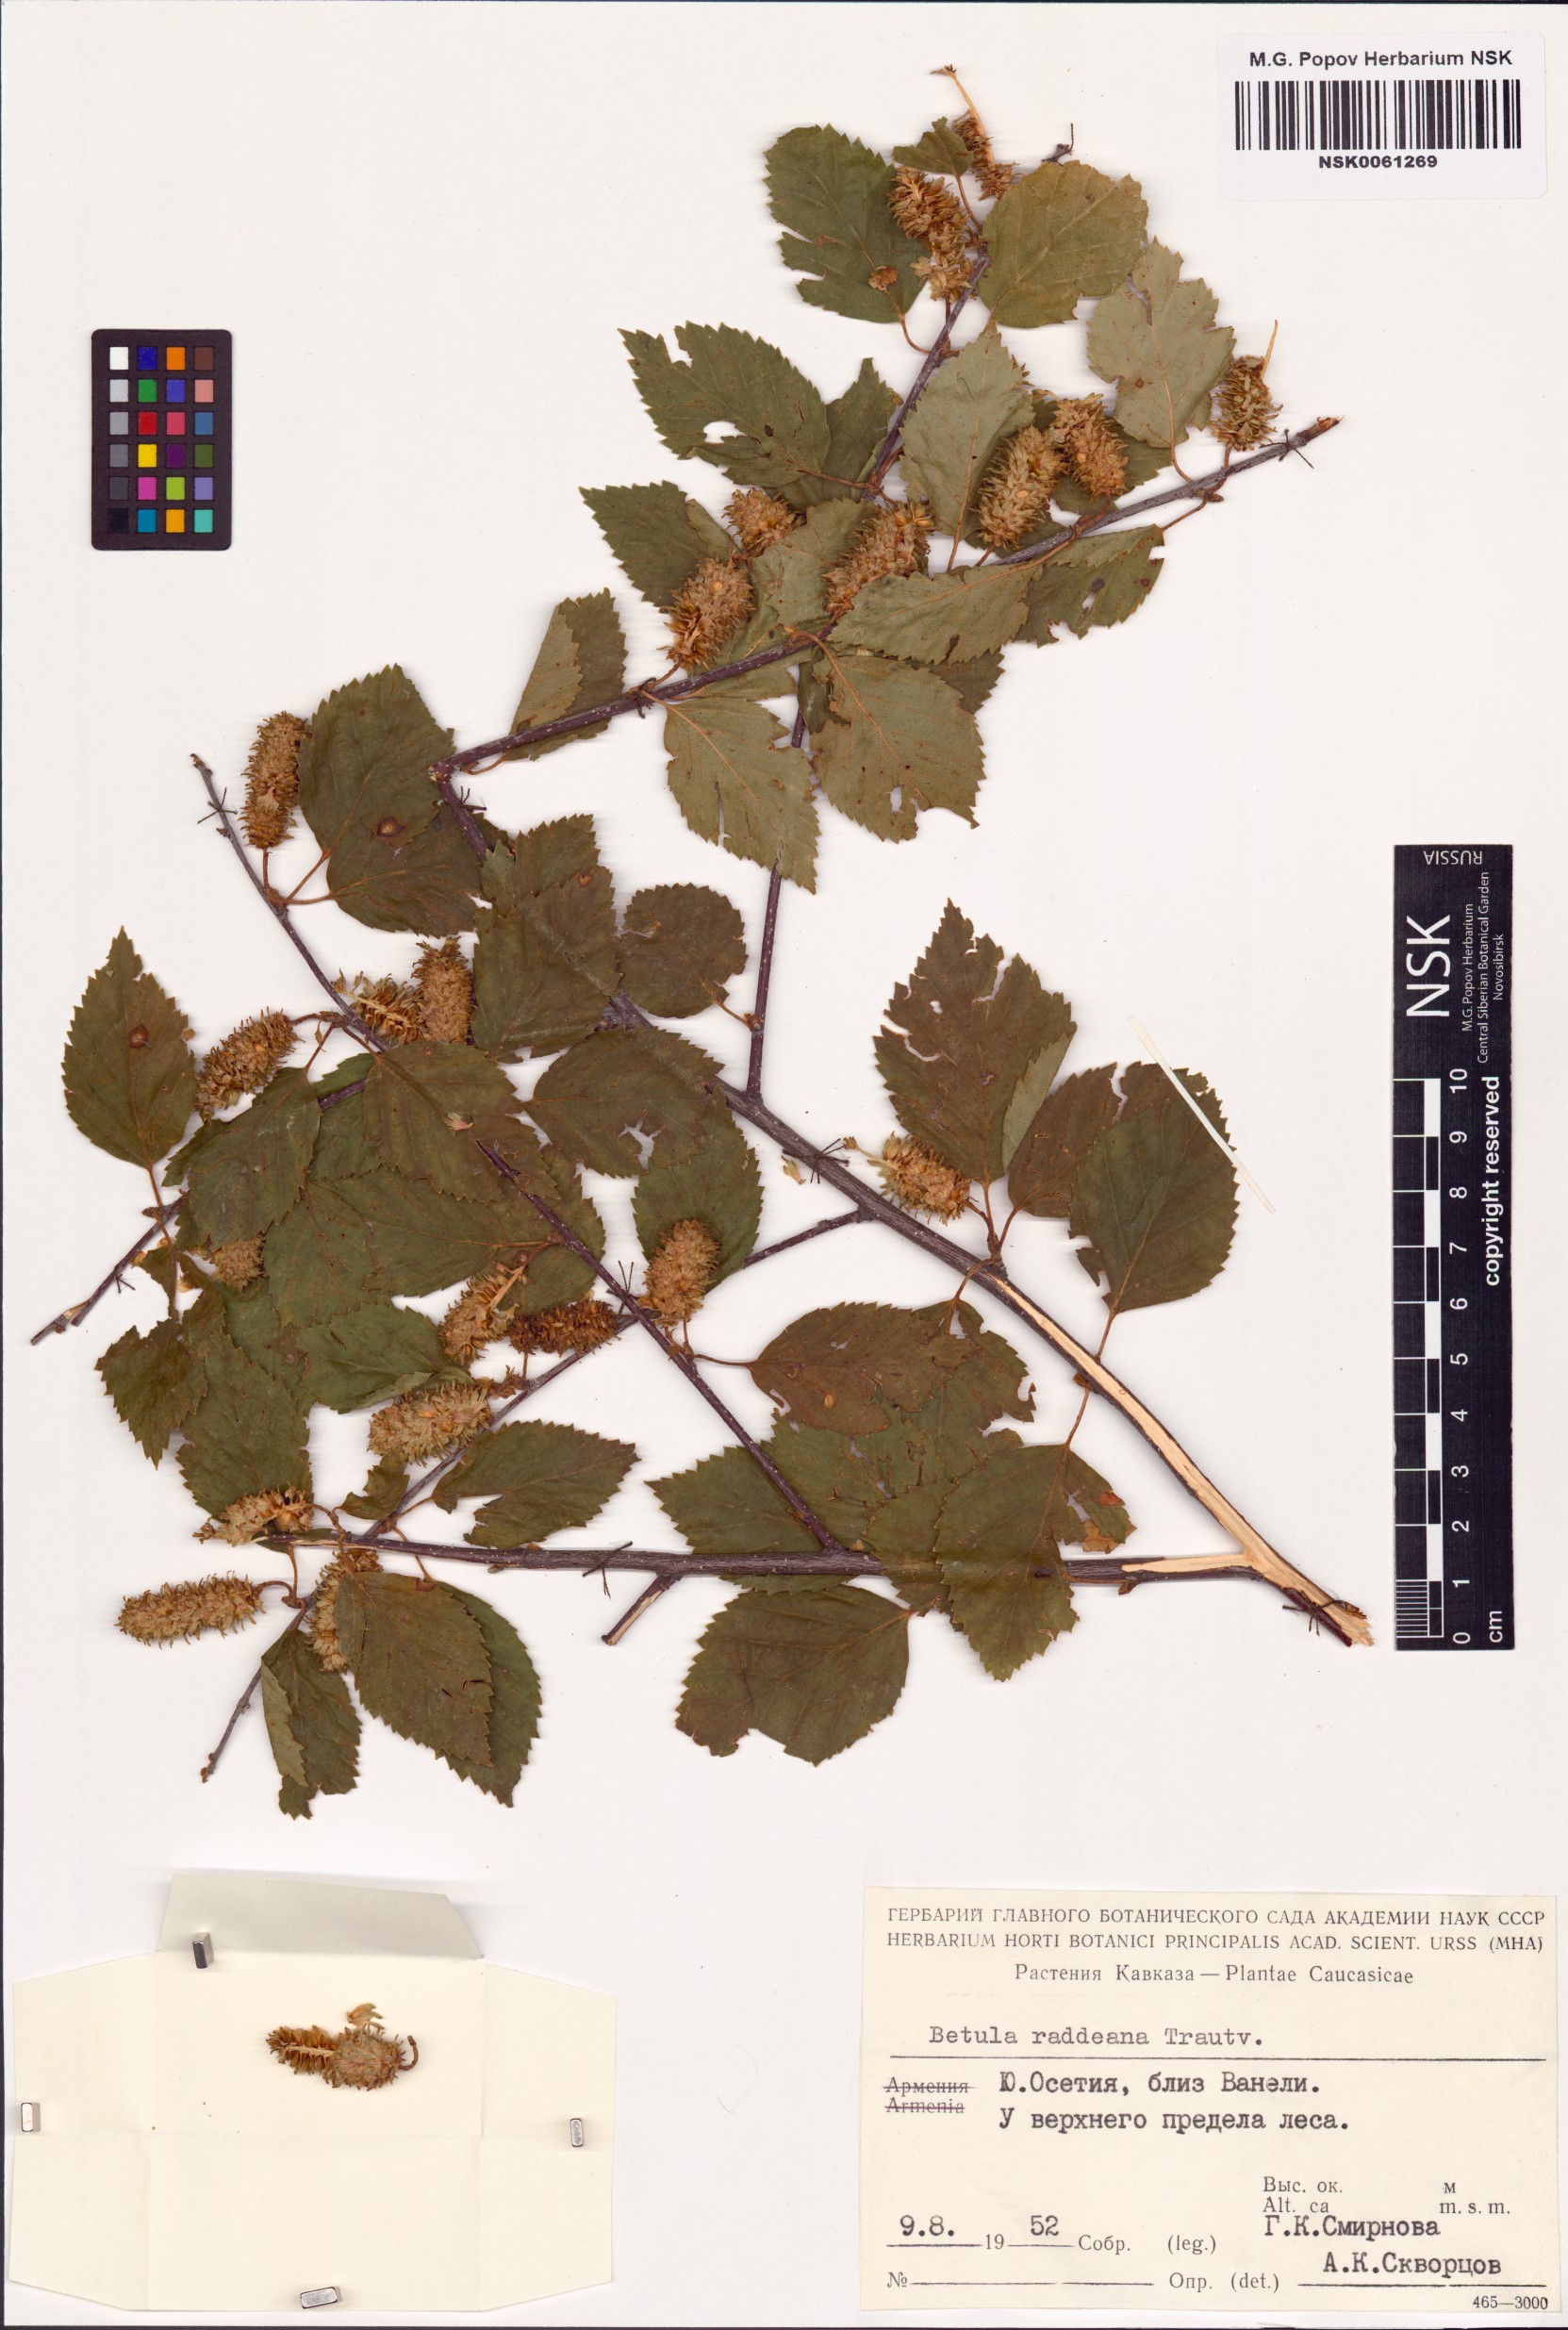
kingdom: Plantae
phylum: Tracheophyta
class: Magnoliopsida
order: Fagales
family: Betulaceae
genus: Betula
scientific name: Betula raddeana
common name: Radde's birch
